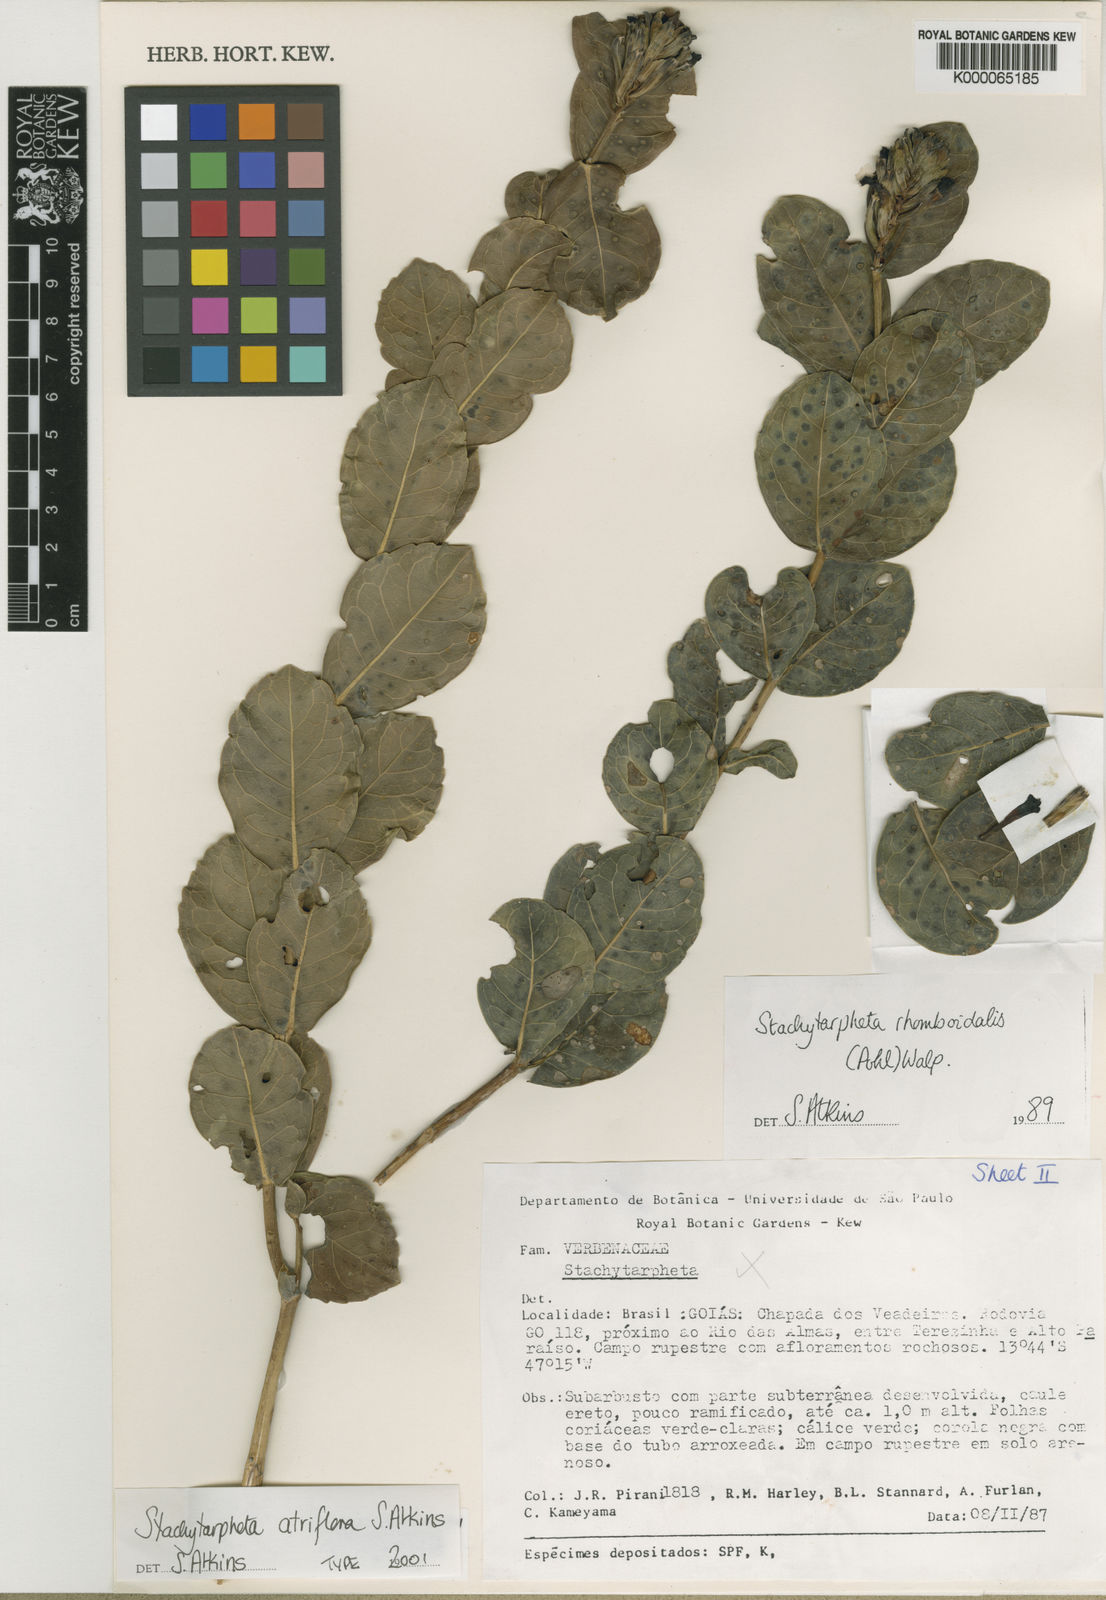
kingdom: Plantae
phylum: Tracheophyta
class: Magnoliopsida
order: Lamiales
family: Verbenaceae
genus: Stachytarpheta
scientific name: Stachytarpheta glauca
